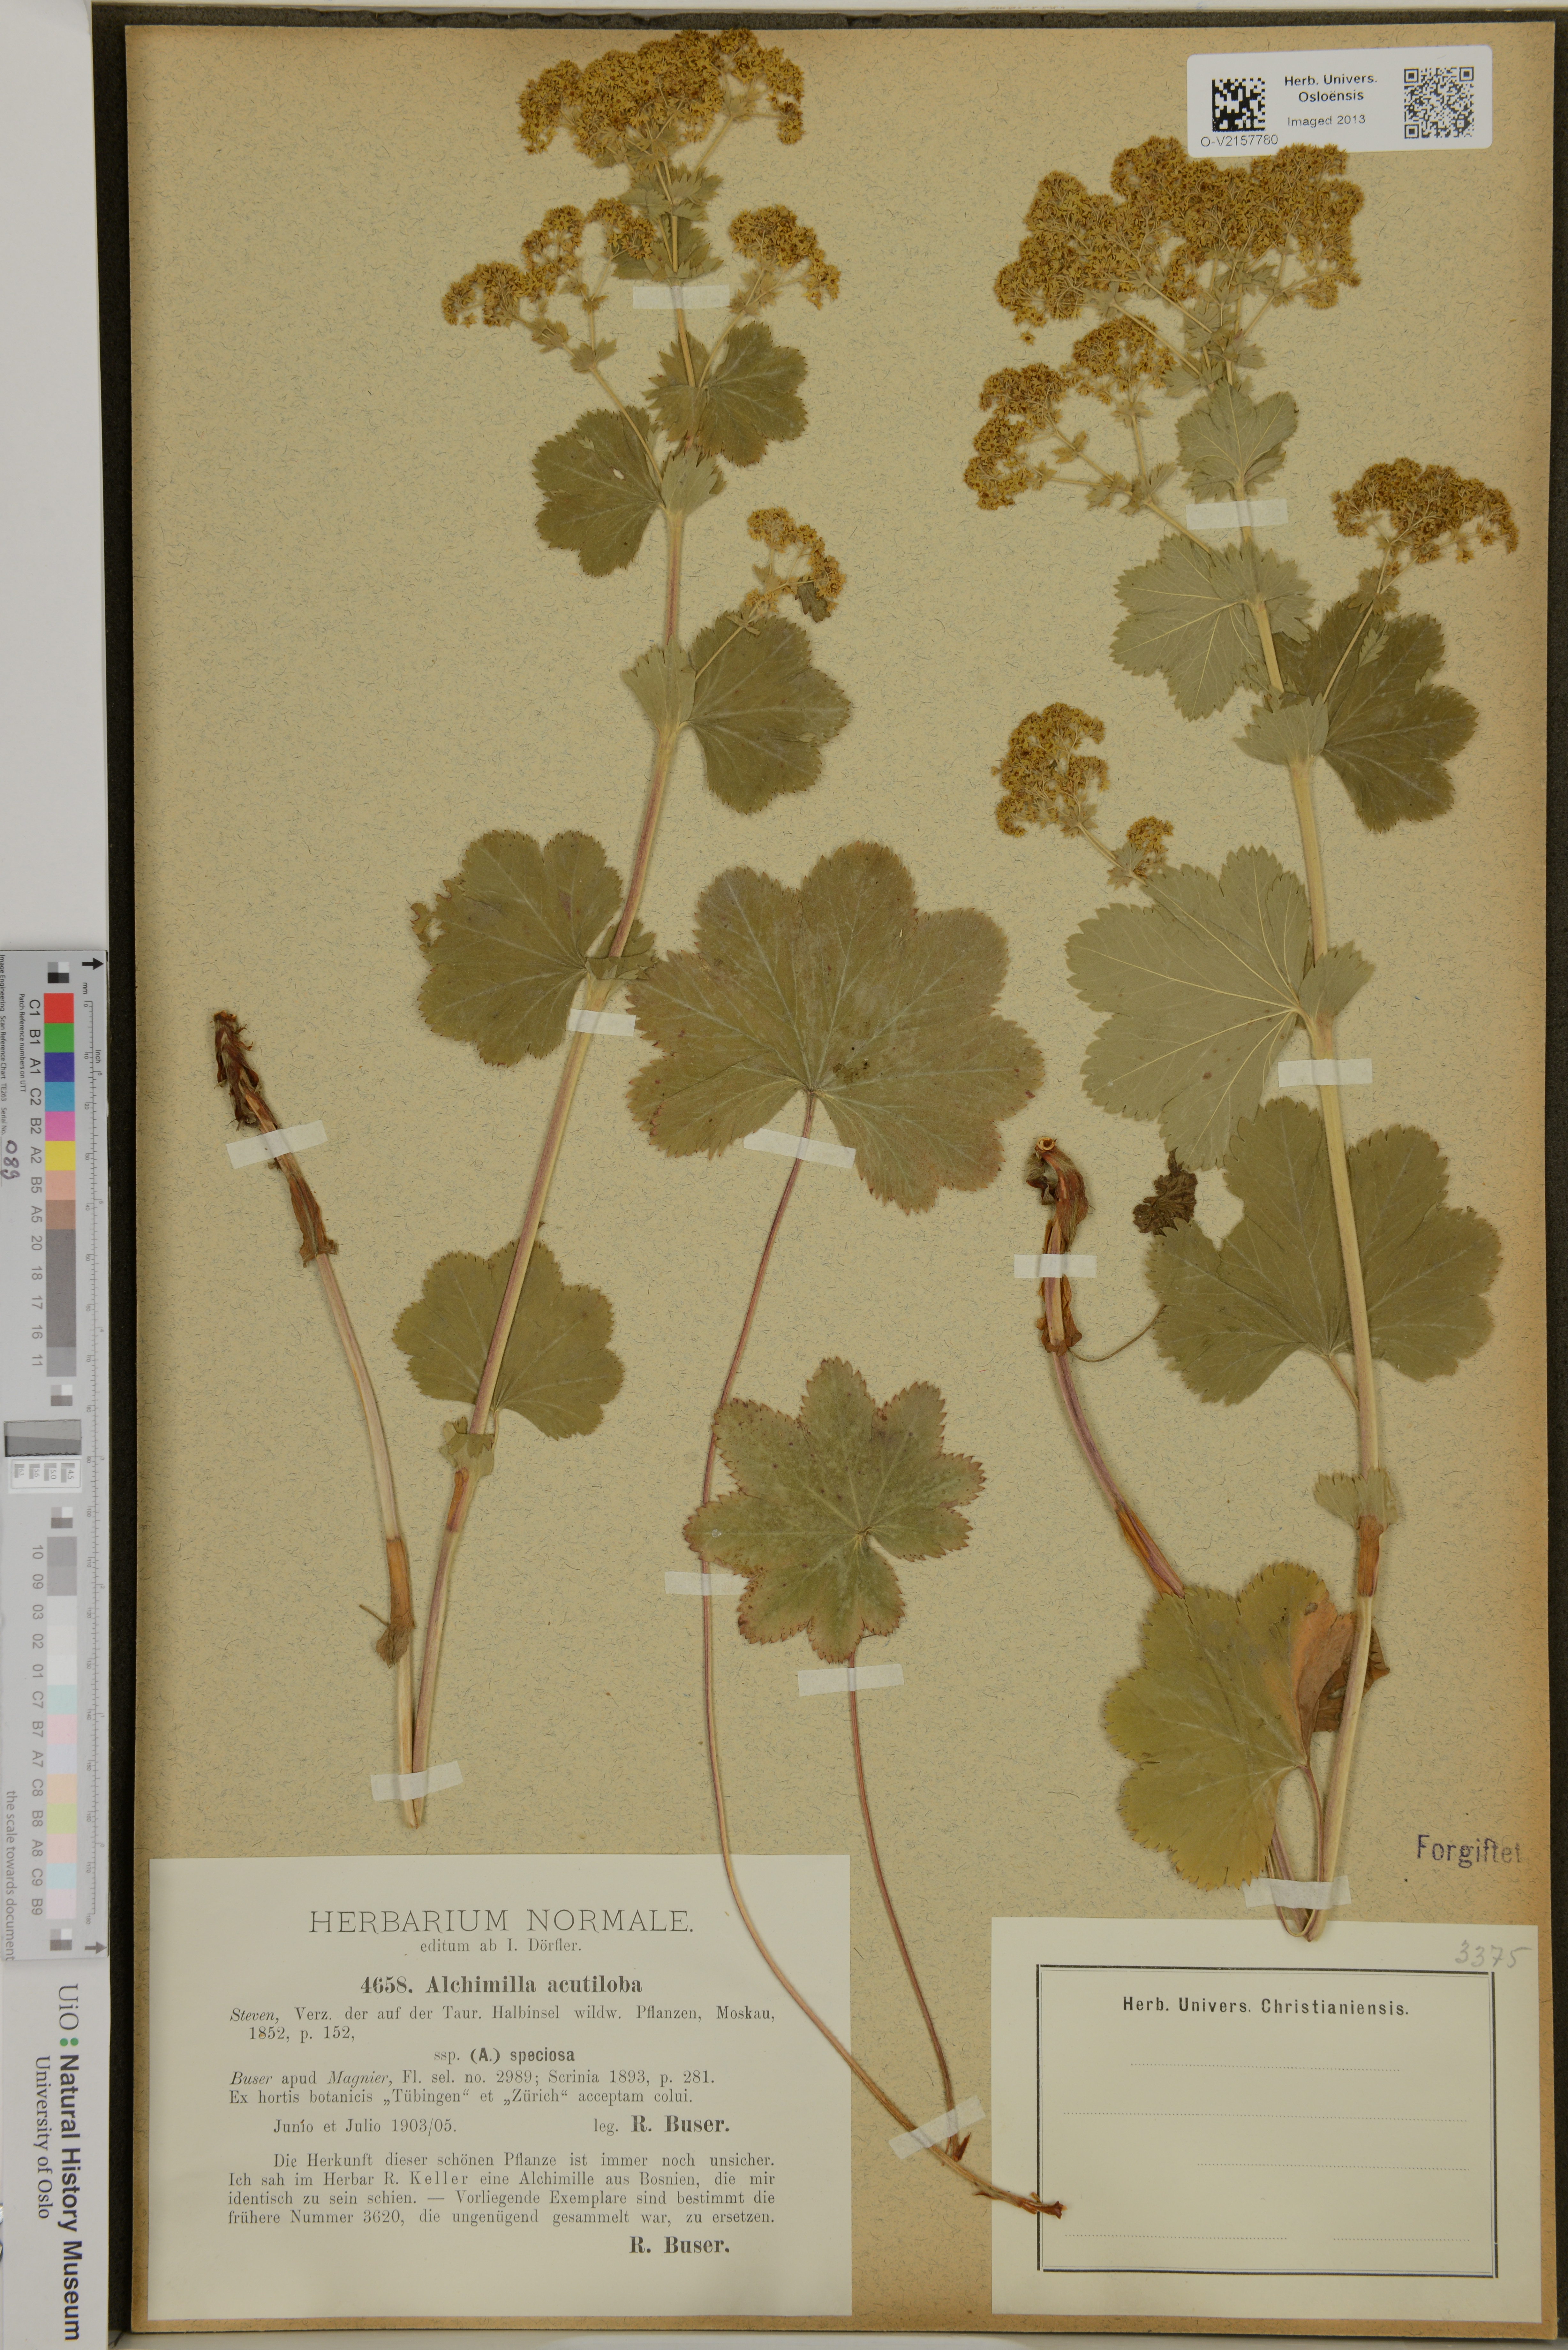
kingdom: Plantae
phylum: Tracheophyta
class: Magnoliopsida
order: Rosales
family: Rosaceae
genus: Alchemilla
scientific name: Alchemilla
